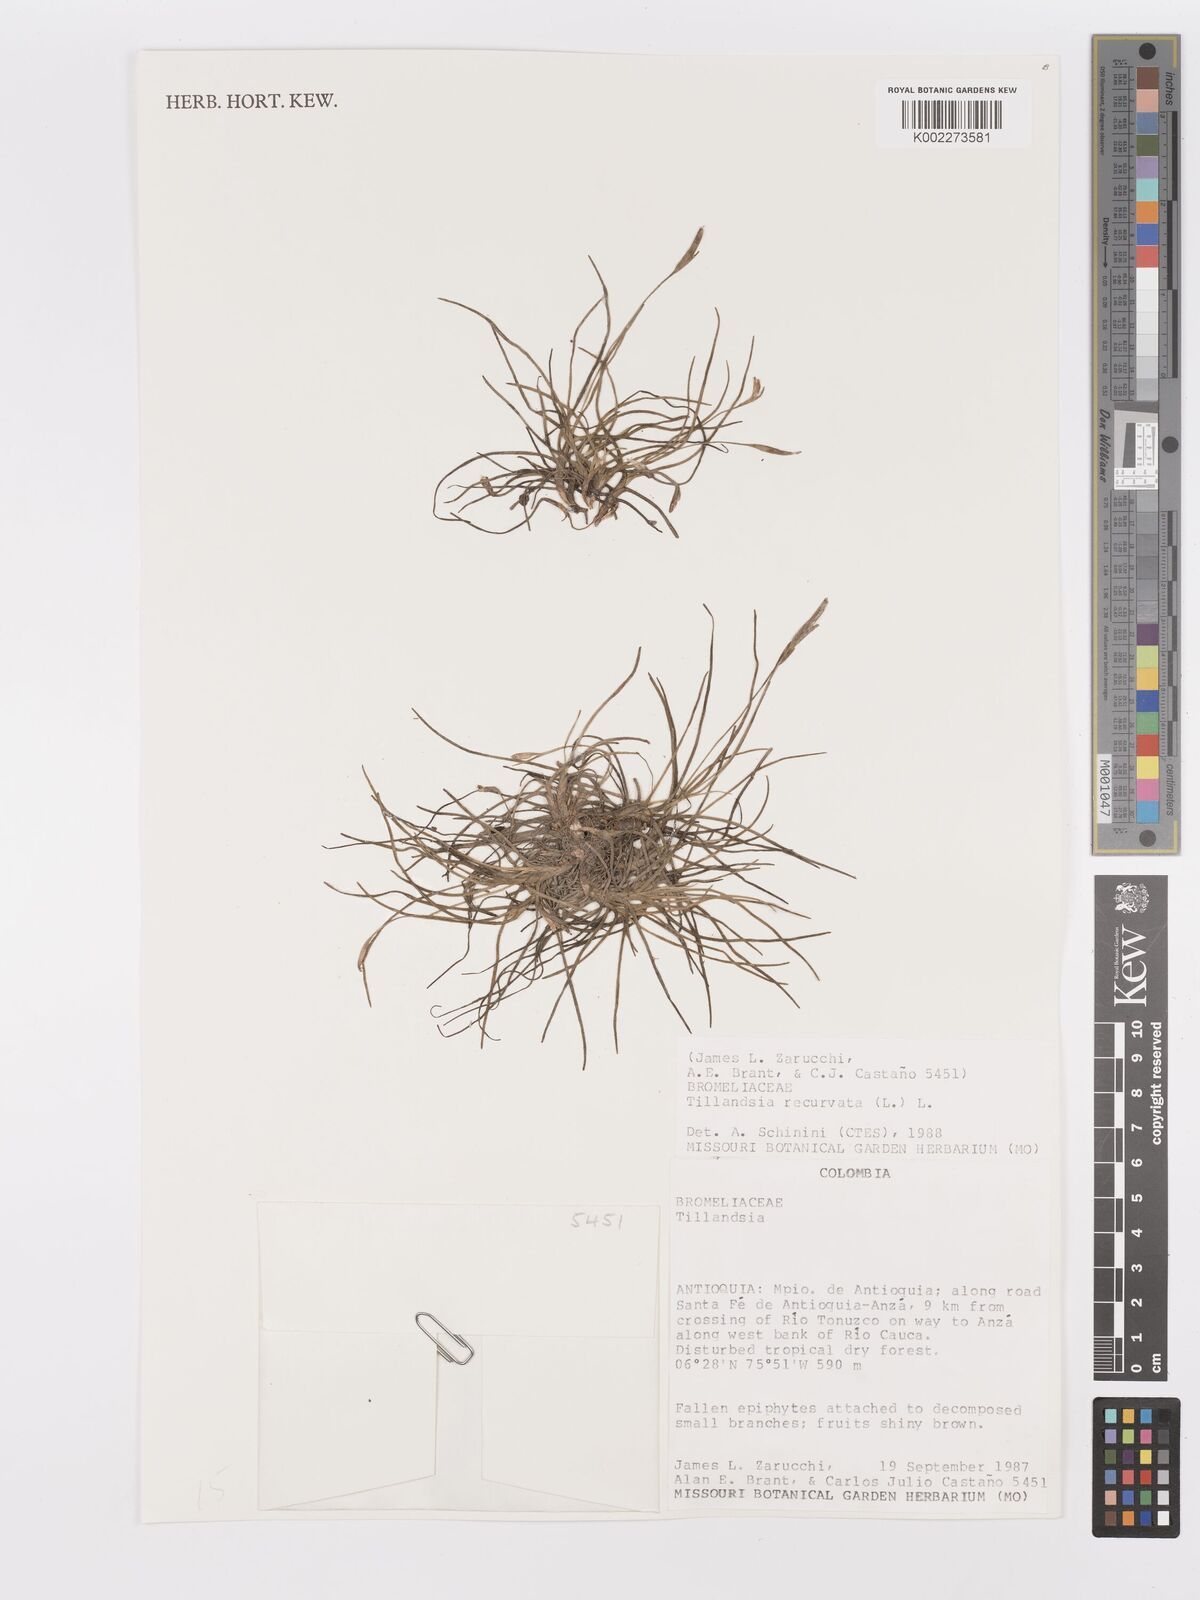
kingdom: Plantae
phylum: Tracheophyta
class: Liliopsida
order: Poales
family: Bromeliaceae
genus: Tillandsia
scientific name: Tillandsia recurvata
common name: Small ballmoss
